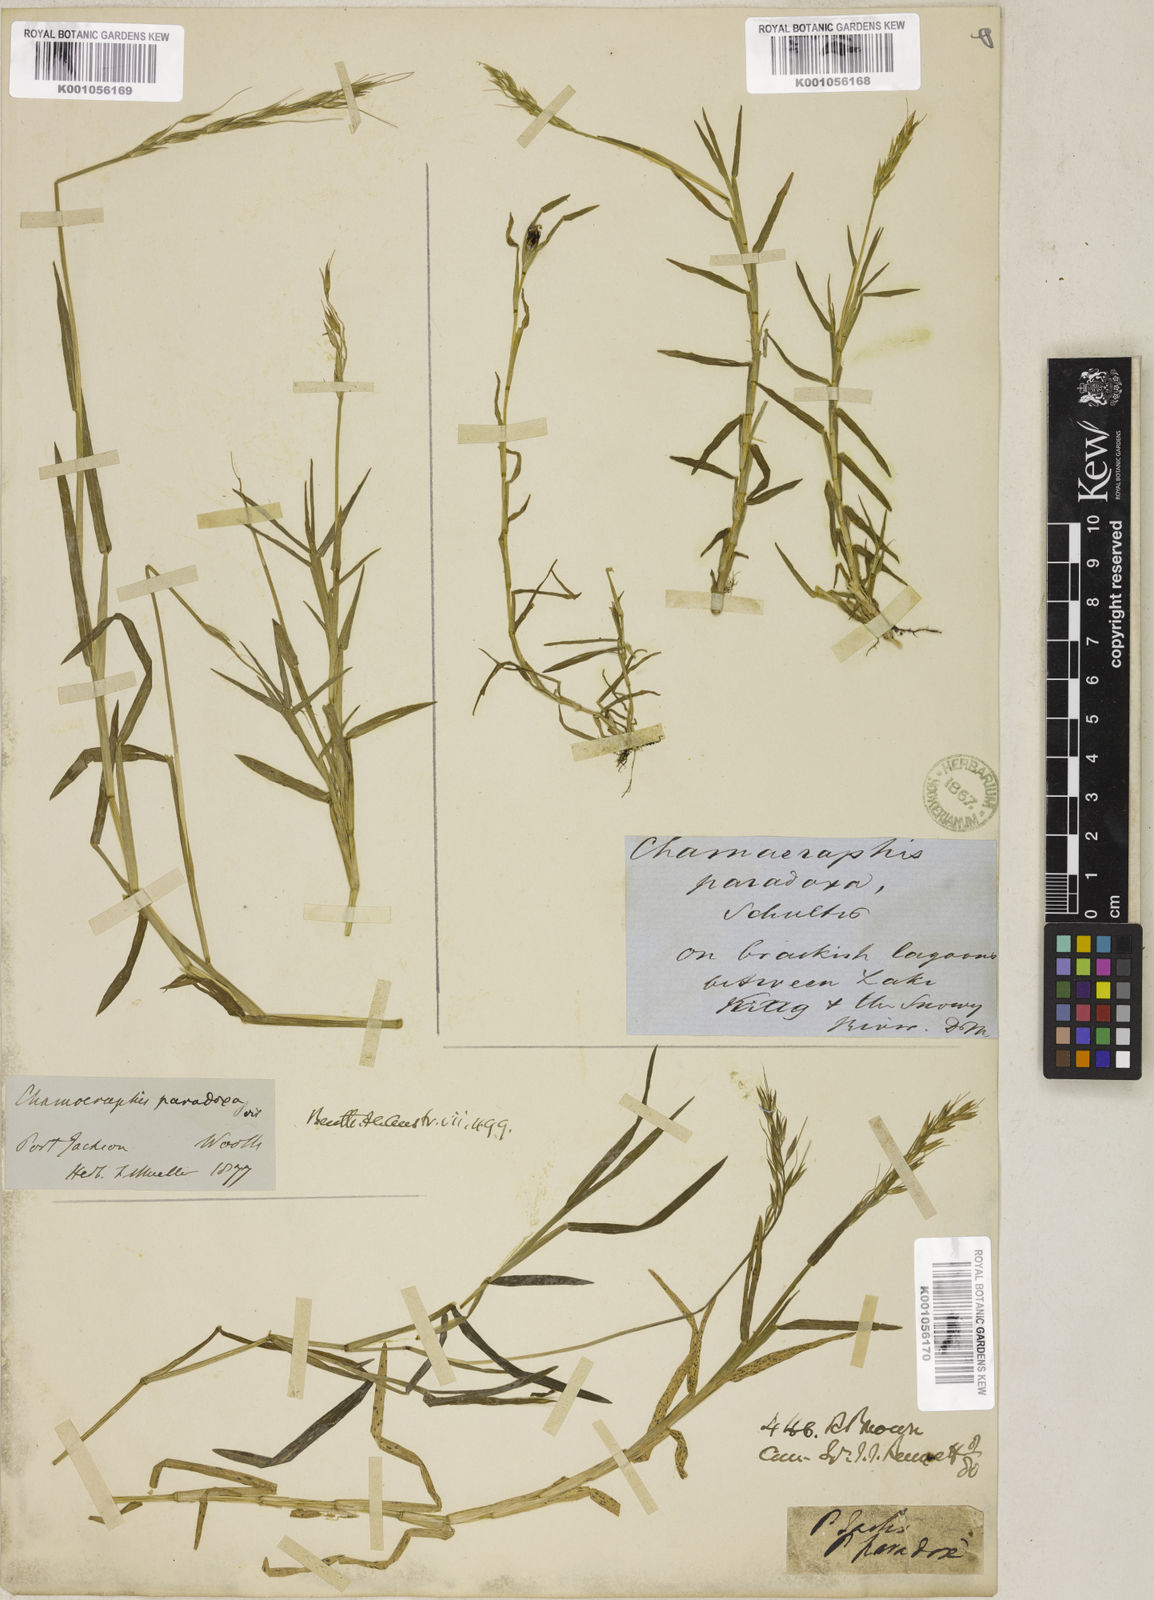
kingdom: Plantae
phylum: Tracheophyta
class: Liliopsida
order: Poales
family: Poaceae
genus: Pseudoraphis
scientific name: Pseudoraphis paradoxa
